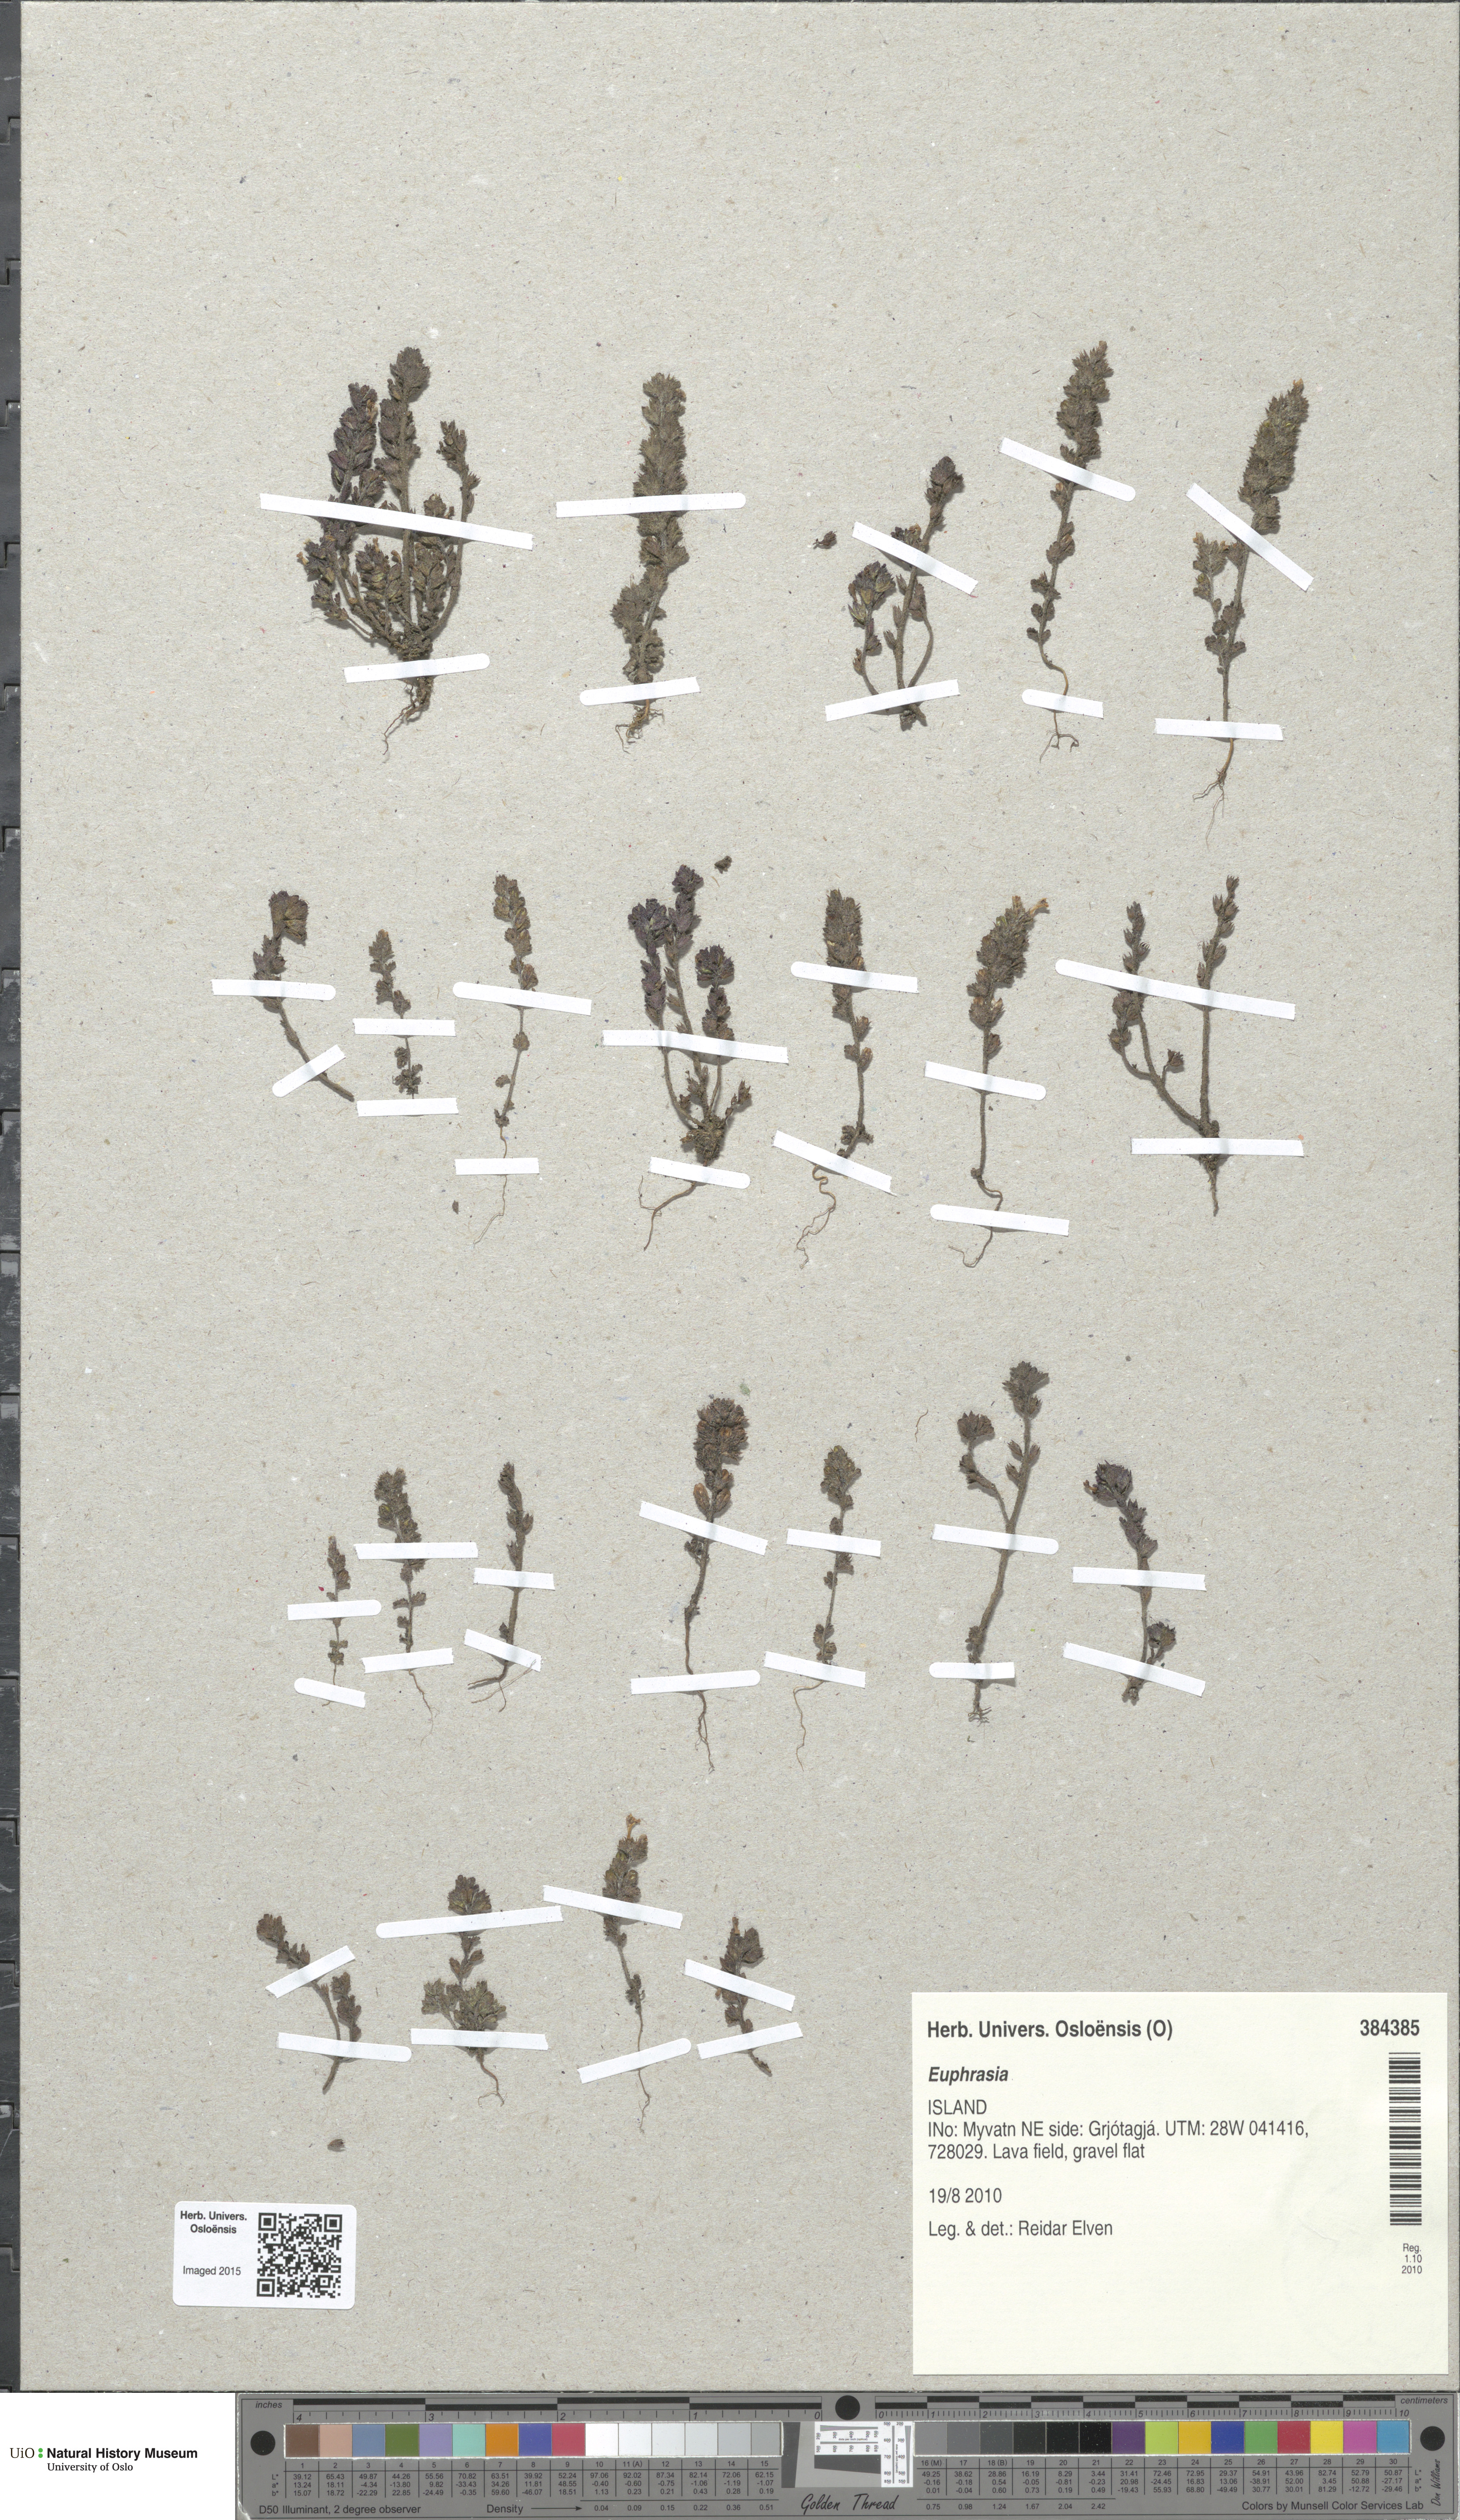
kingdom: Plantae
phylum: Tracheophyta
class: Magnoliopsida
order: Lamiales
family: Orobanchaceae
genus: Euphrasia
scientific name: Euphrasia
